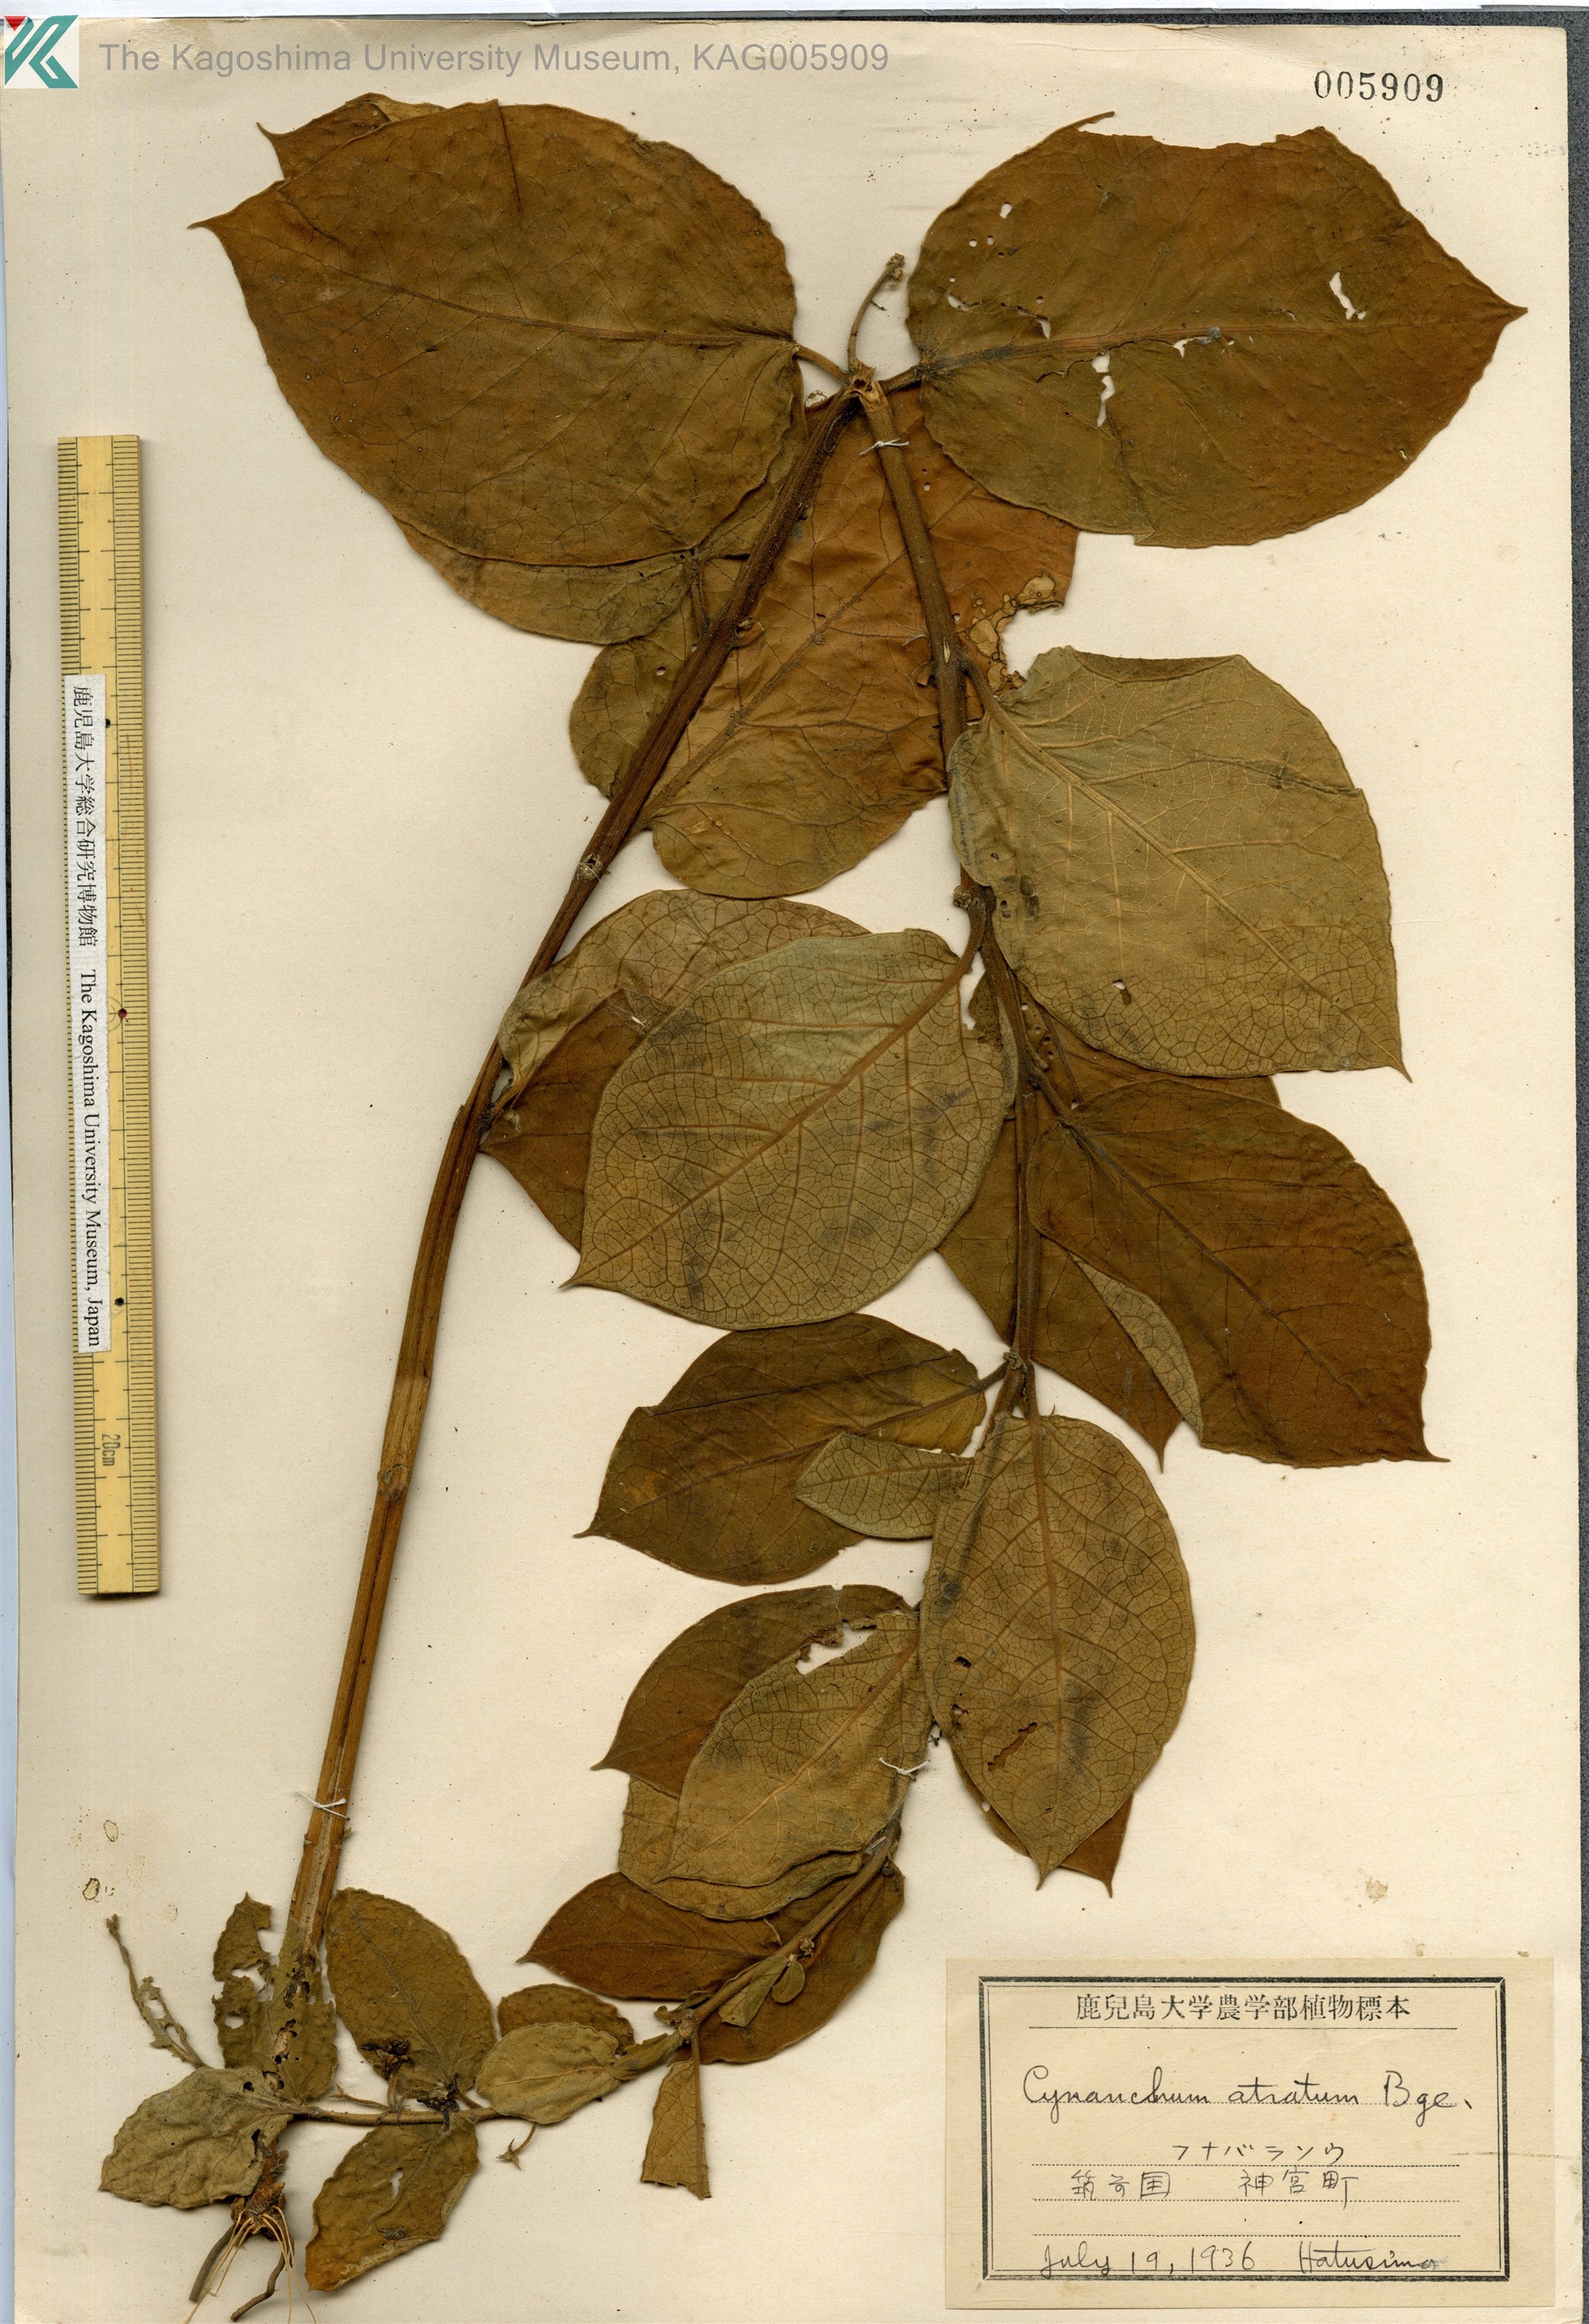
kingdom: Plantae
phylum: Tracheophyta
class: Magnoliopsida
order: Gentianales
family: Apocynaceae
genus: Vincetoxicum
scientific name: Vincetoxicum atratum
